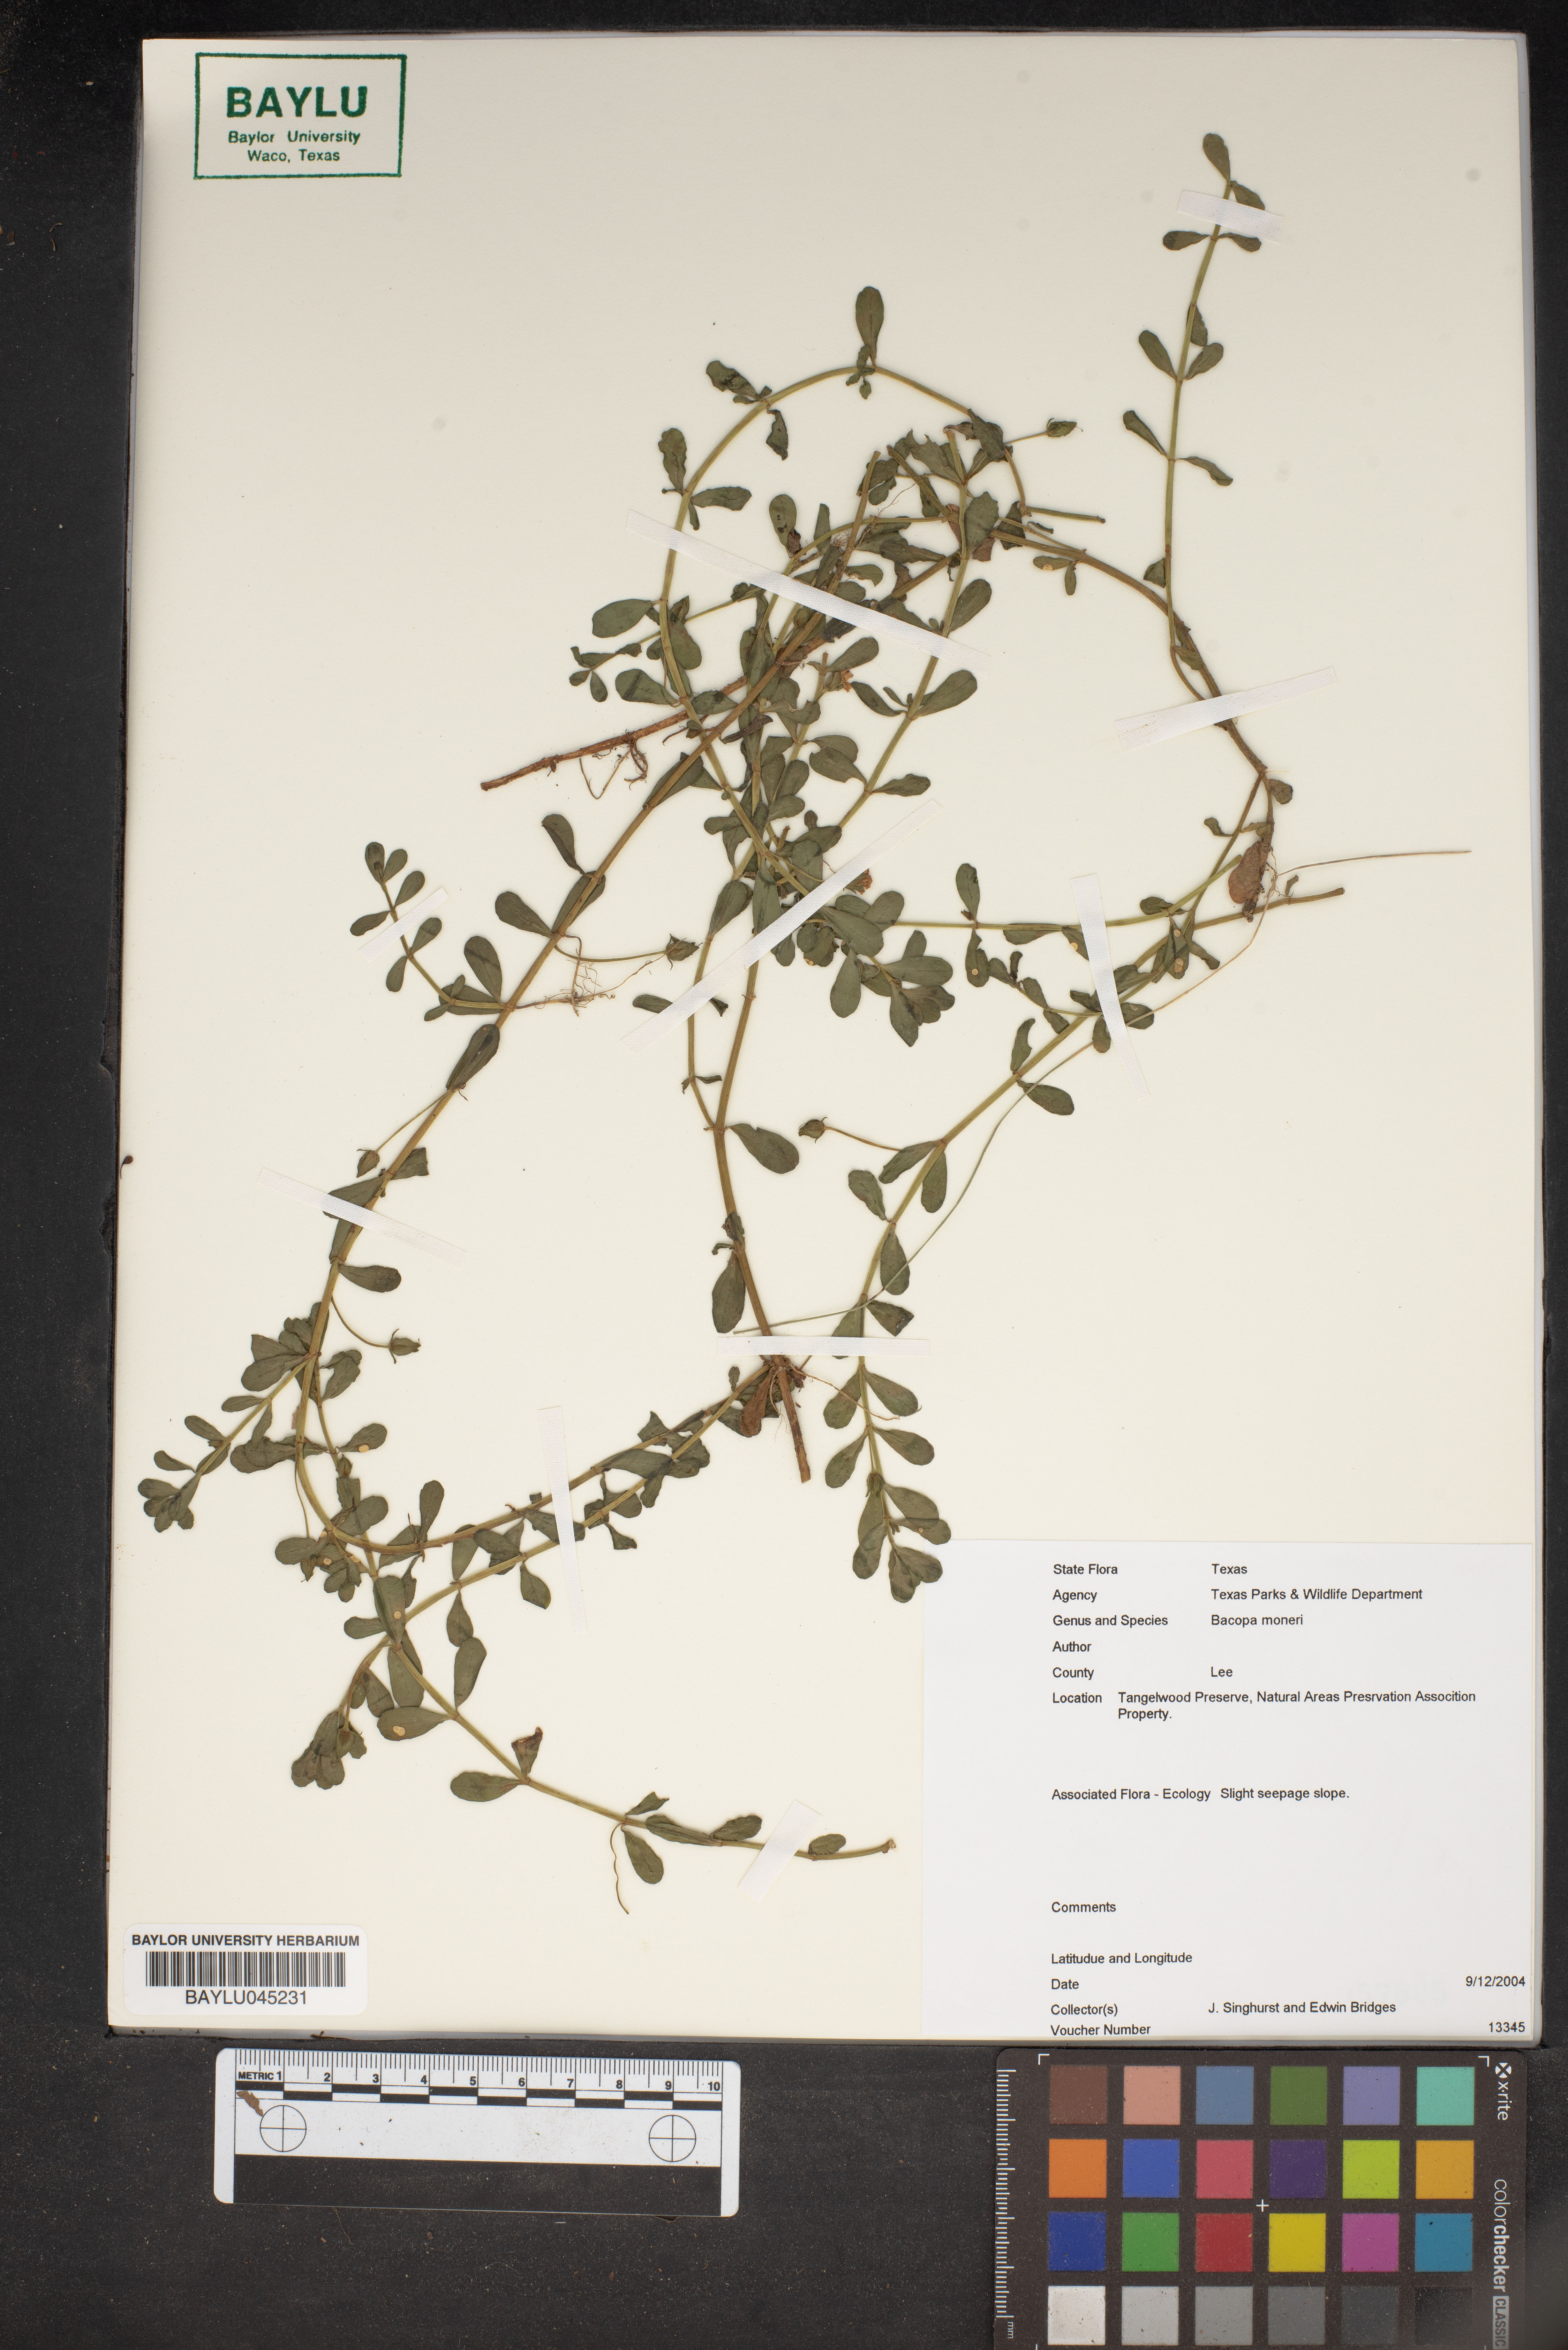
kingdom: Plantae
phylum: Tracheophyta
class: Magnoliopsida
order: Lamiales
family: Plantaginaceae
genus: Bacopa
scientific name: Bacopa monnieri
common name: Indian-pennywort
